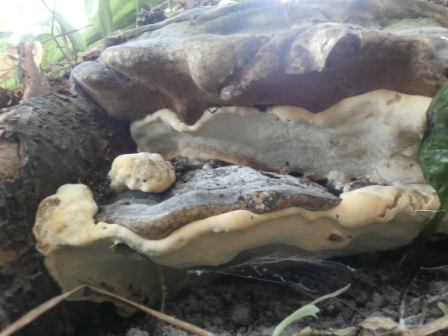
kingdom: Fungi
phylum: Basidiomycota
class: Agaricomycetes
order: Polyporales
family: Polyporaceae
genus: Vanderbylia
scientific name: Vanderbylia fraxinea
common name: stor kanelporesvamp
